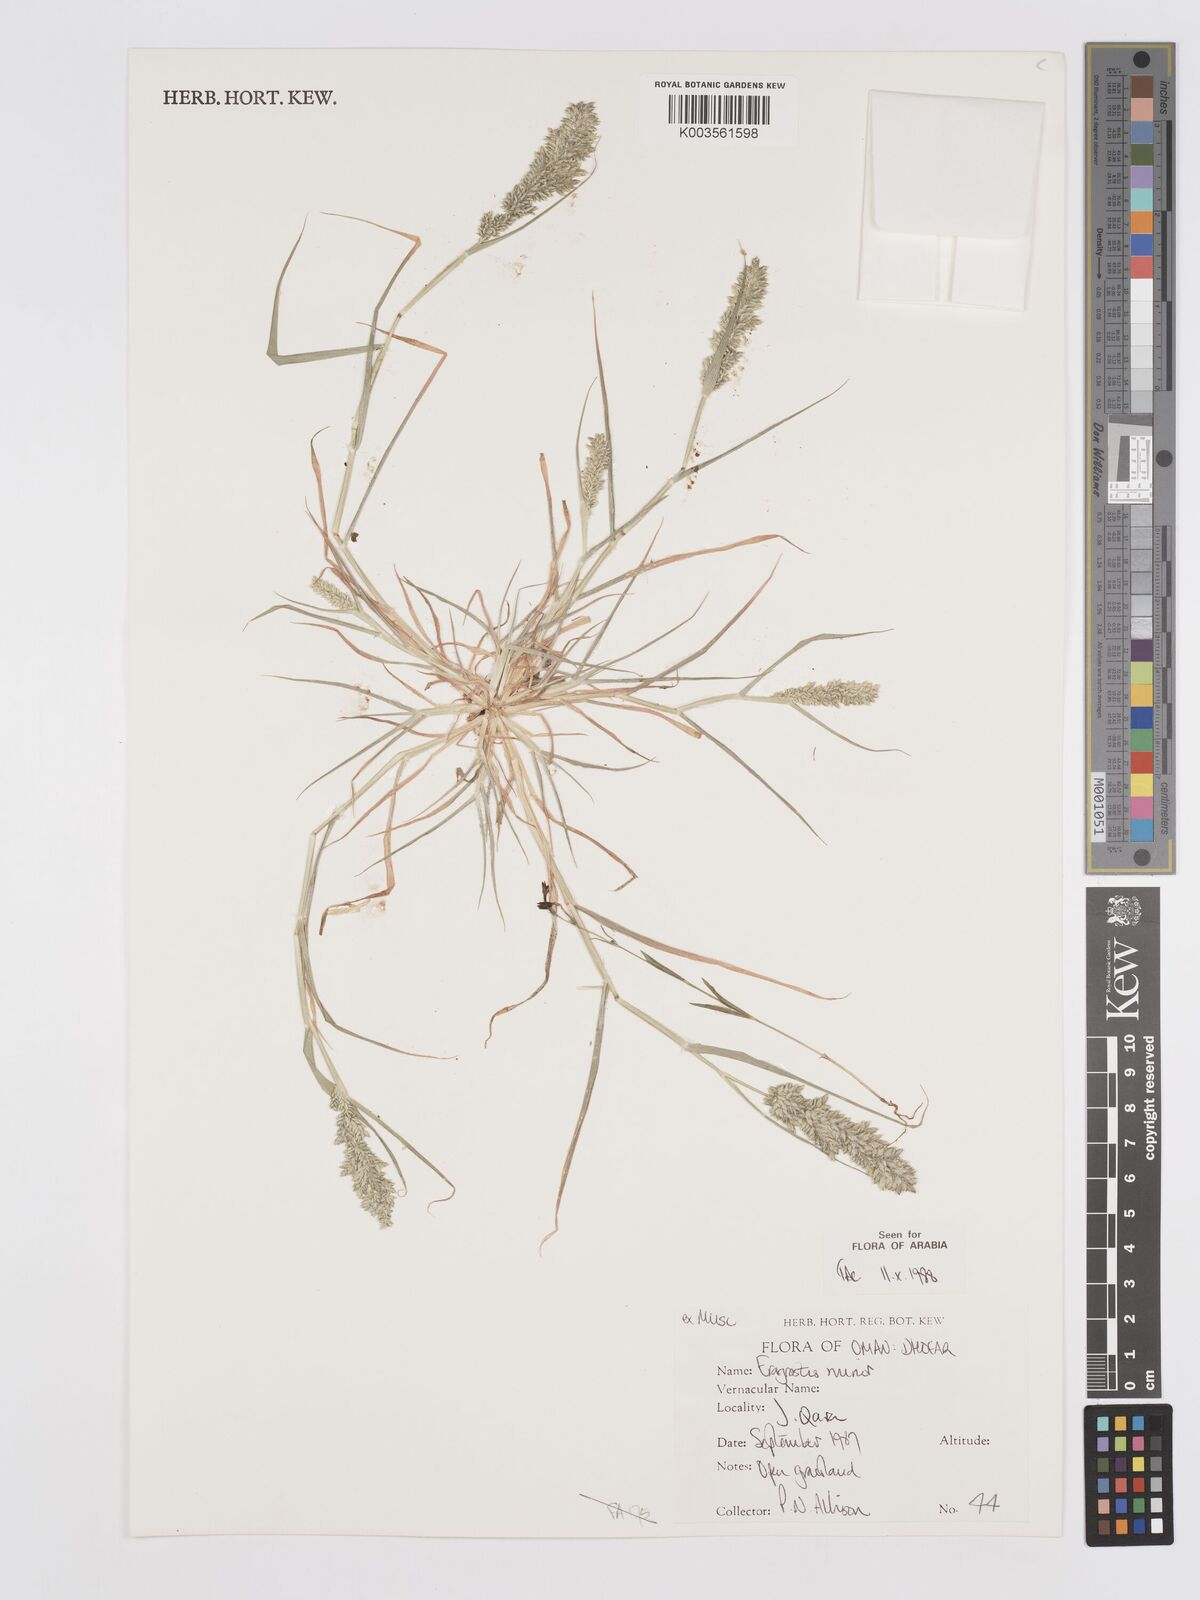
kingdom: Plantae
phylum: Tracheophyta
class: Liliopsida
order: Poales
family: Poaceae
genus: Eragrostis
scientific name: Eragrostis minor
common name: Small love-grass
